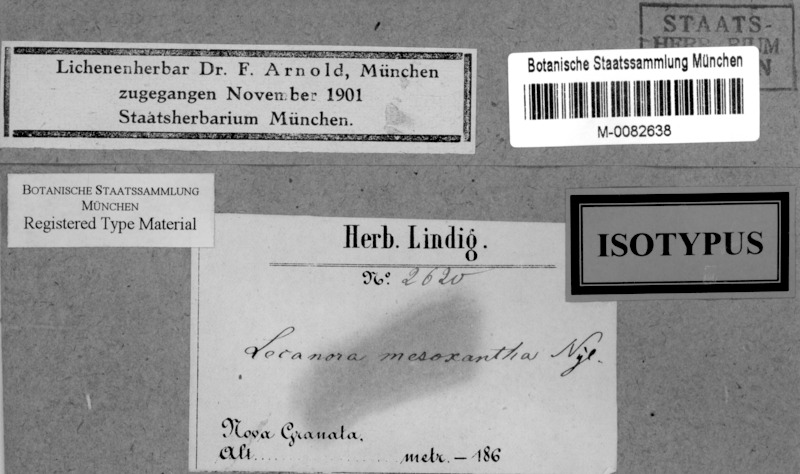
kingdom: Fungi
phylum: Ascomycota
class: Lecanoromycetes
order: Lecanorales
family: Lecanoraceae
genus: Lecanora
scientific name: Lecanora mesoxantha
